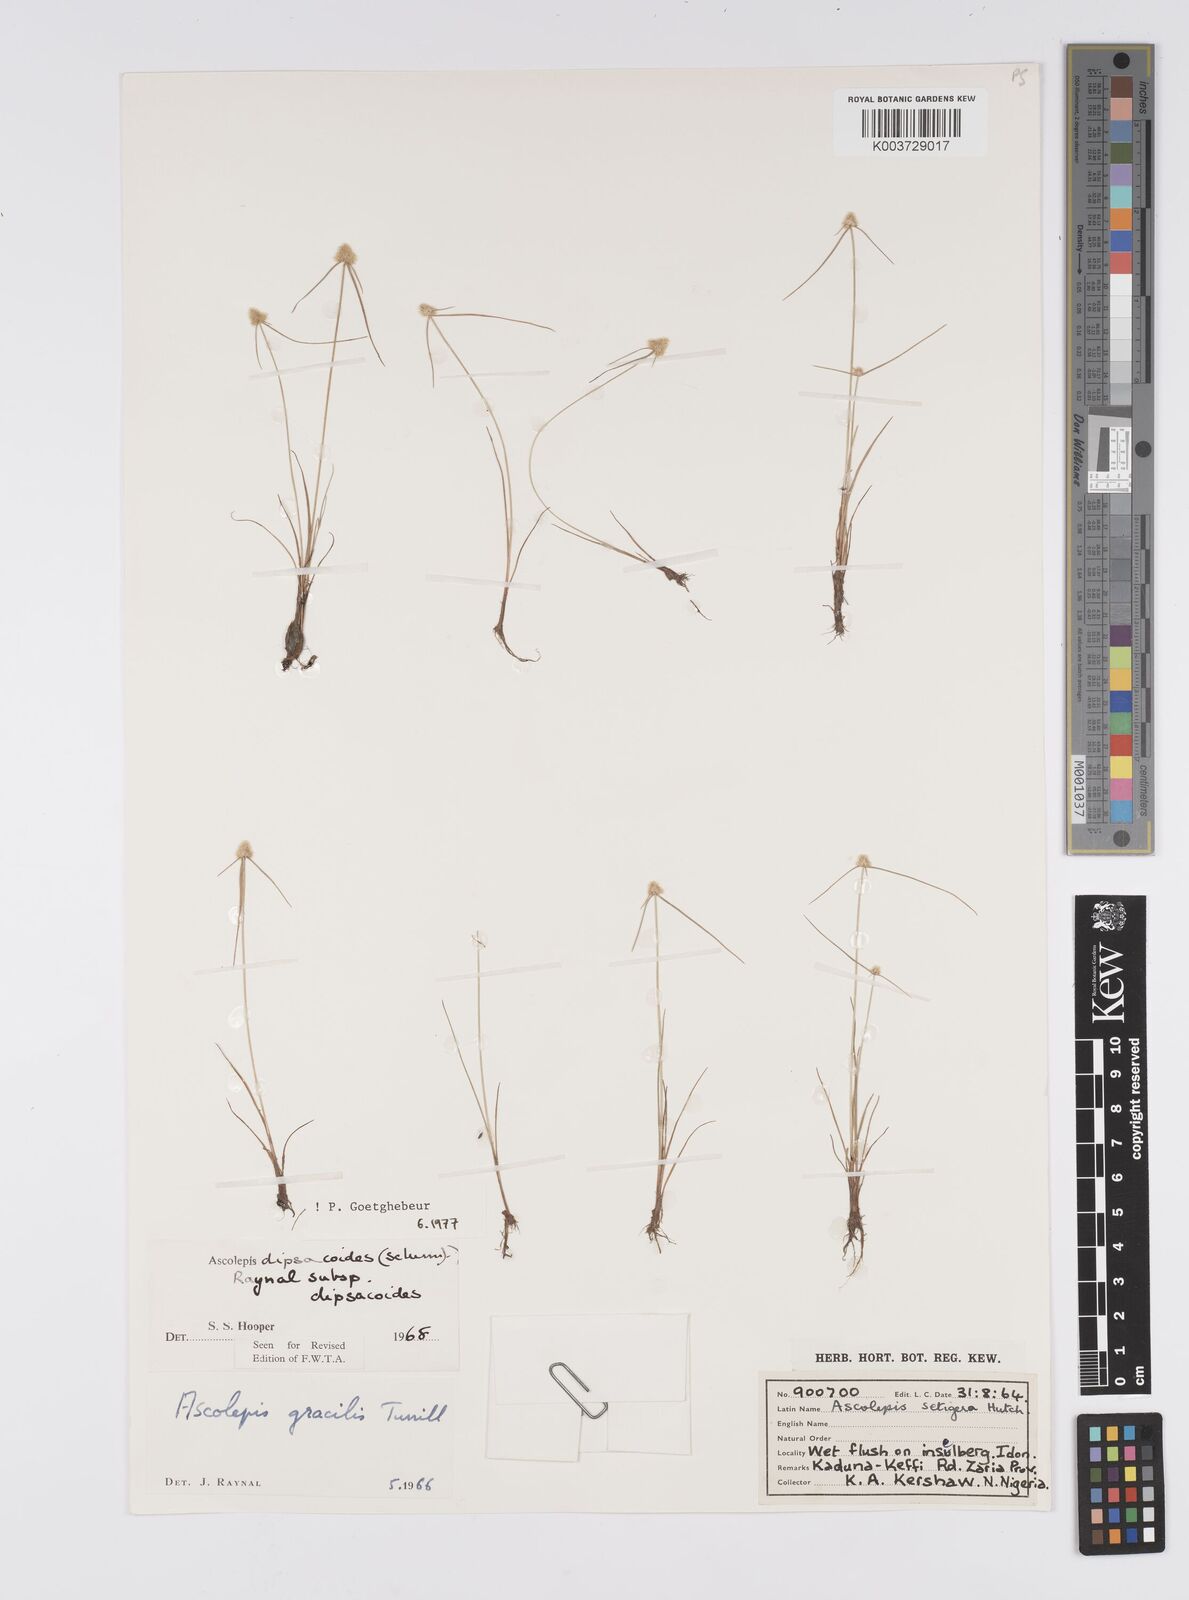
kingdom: Plantae
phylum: Tracheophyta
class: Liliopsida
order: Poales
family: Cyperaceae
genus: Cyperus
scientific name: Cyperus dipsacoides
